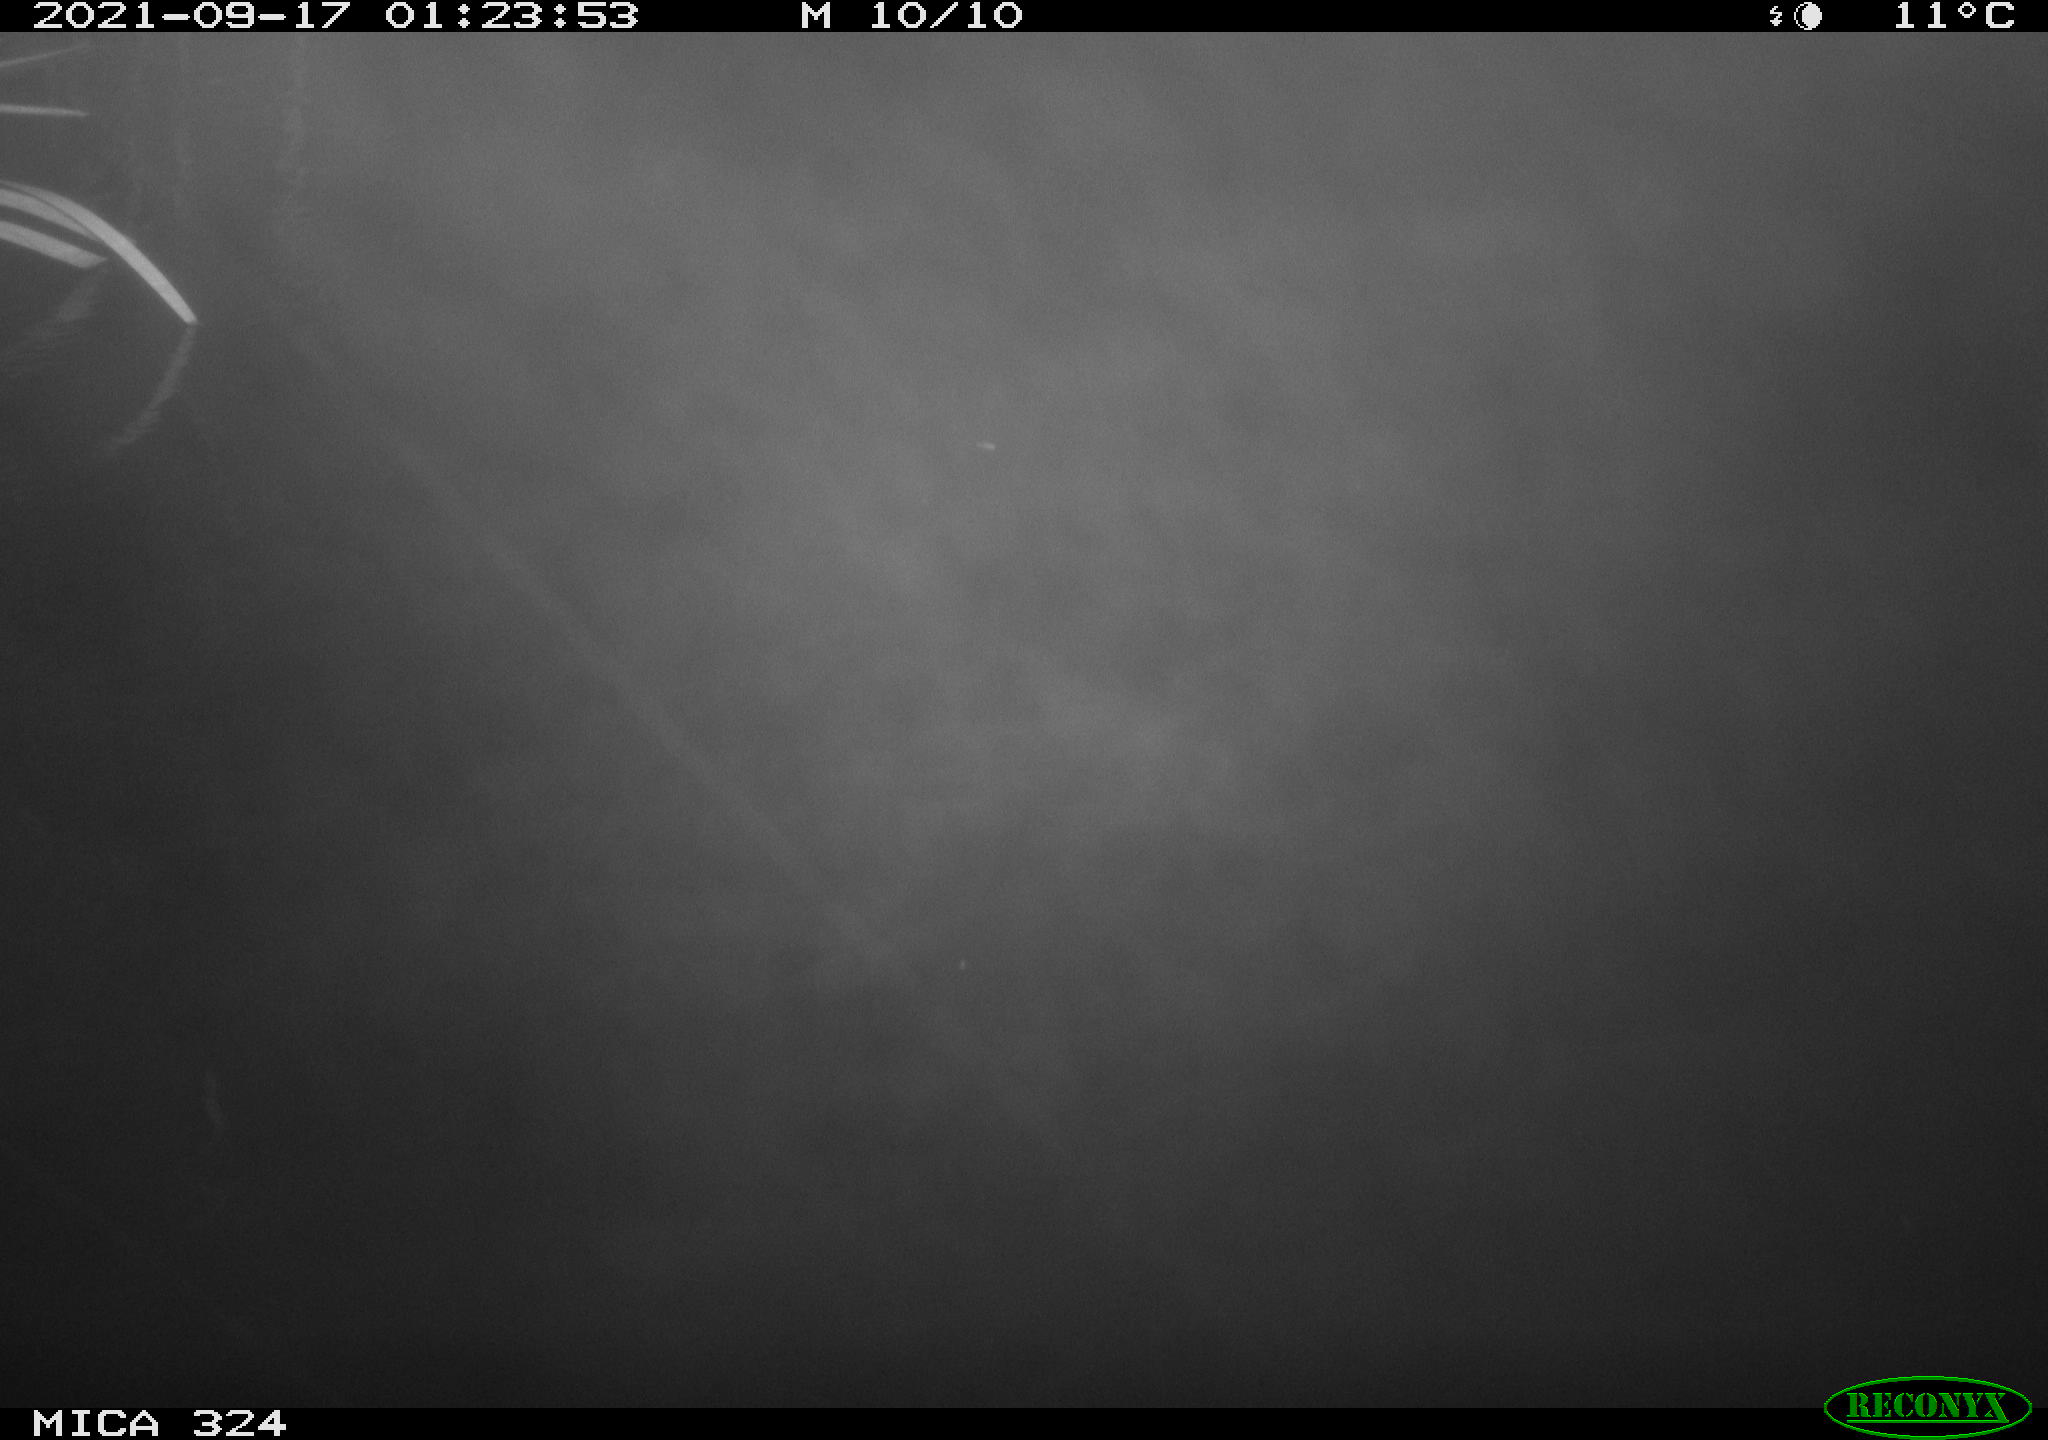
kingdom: Animalia
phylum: Chordata
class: Mammalia
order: Rodentia
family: Cricetidae
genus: Ondatra
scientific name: Ondatra zibethicus
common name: Muskrat
